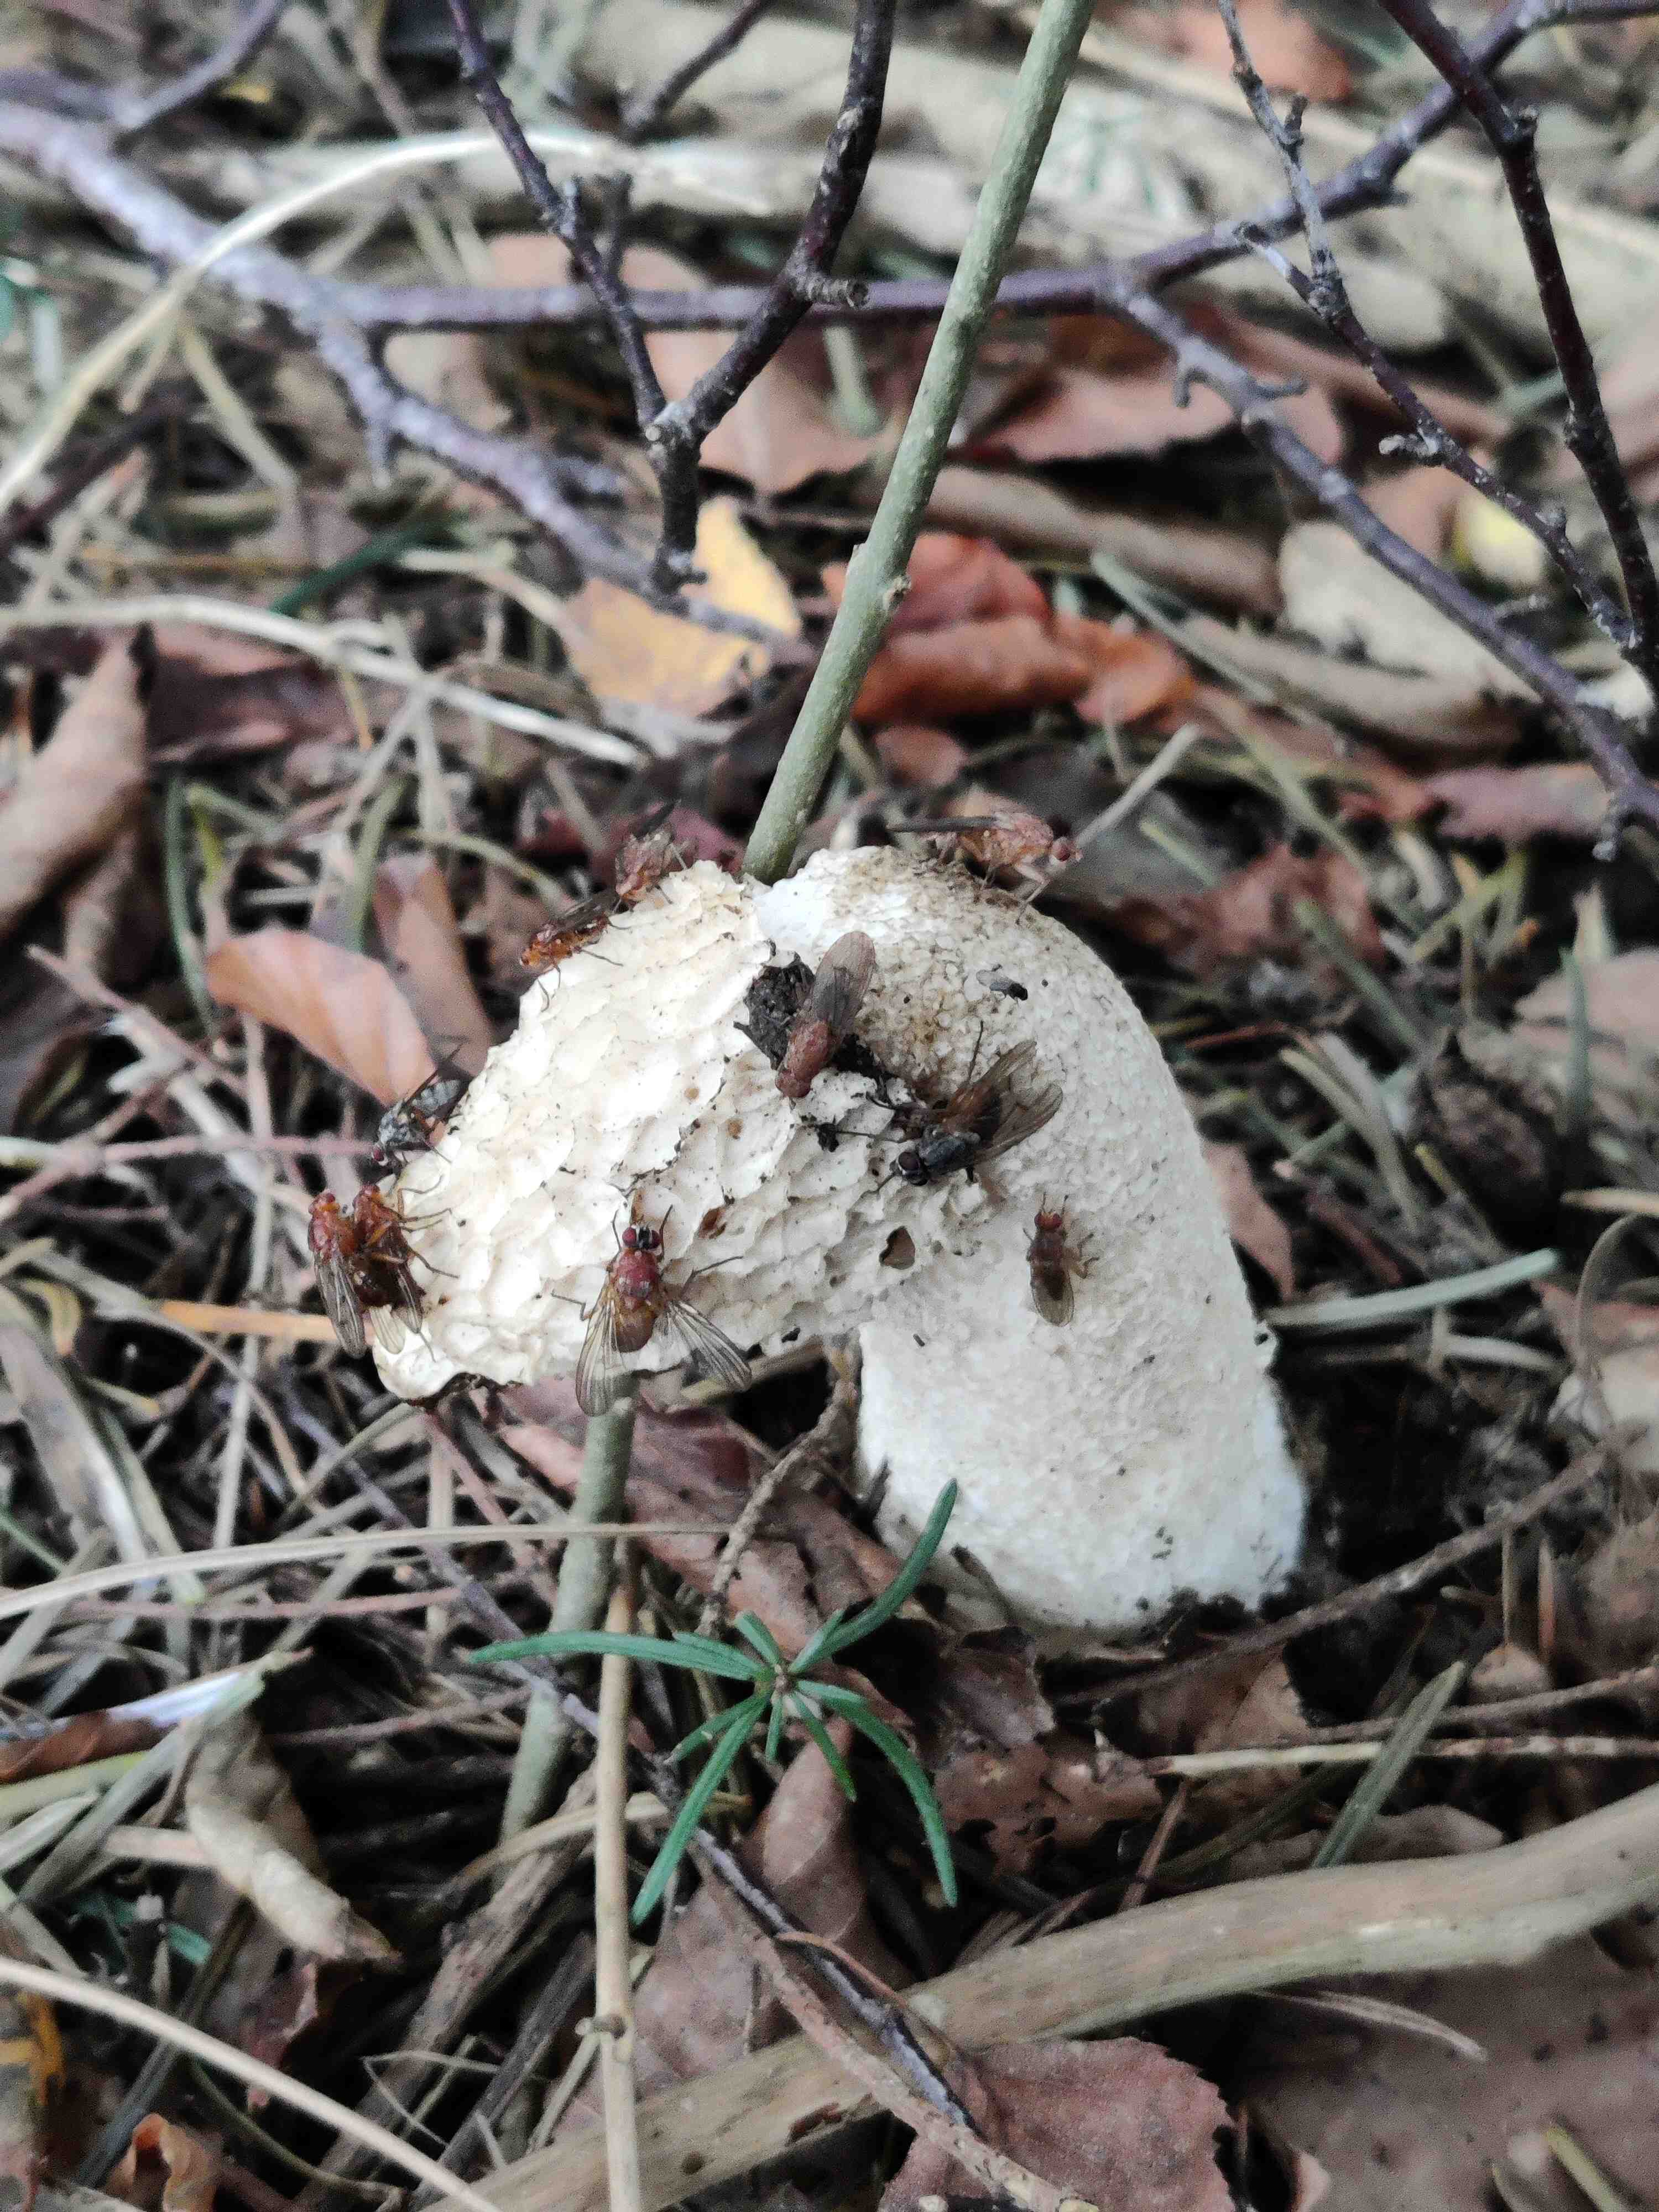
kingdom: Fungi
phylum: Basidiomycota
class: Agaricomycetes
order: Phallales
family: Phallaceae
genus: Phallus
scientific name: Phallus impudicus
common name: almindelig stinksvamp
